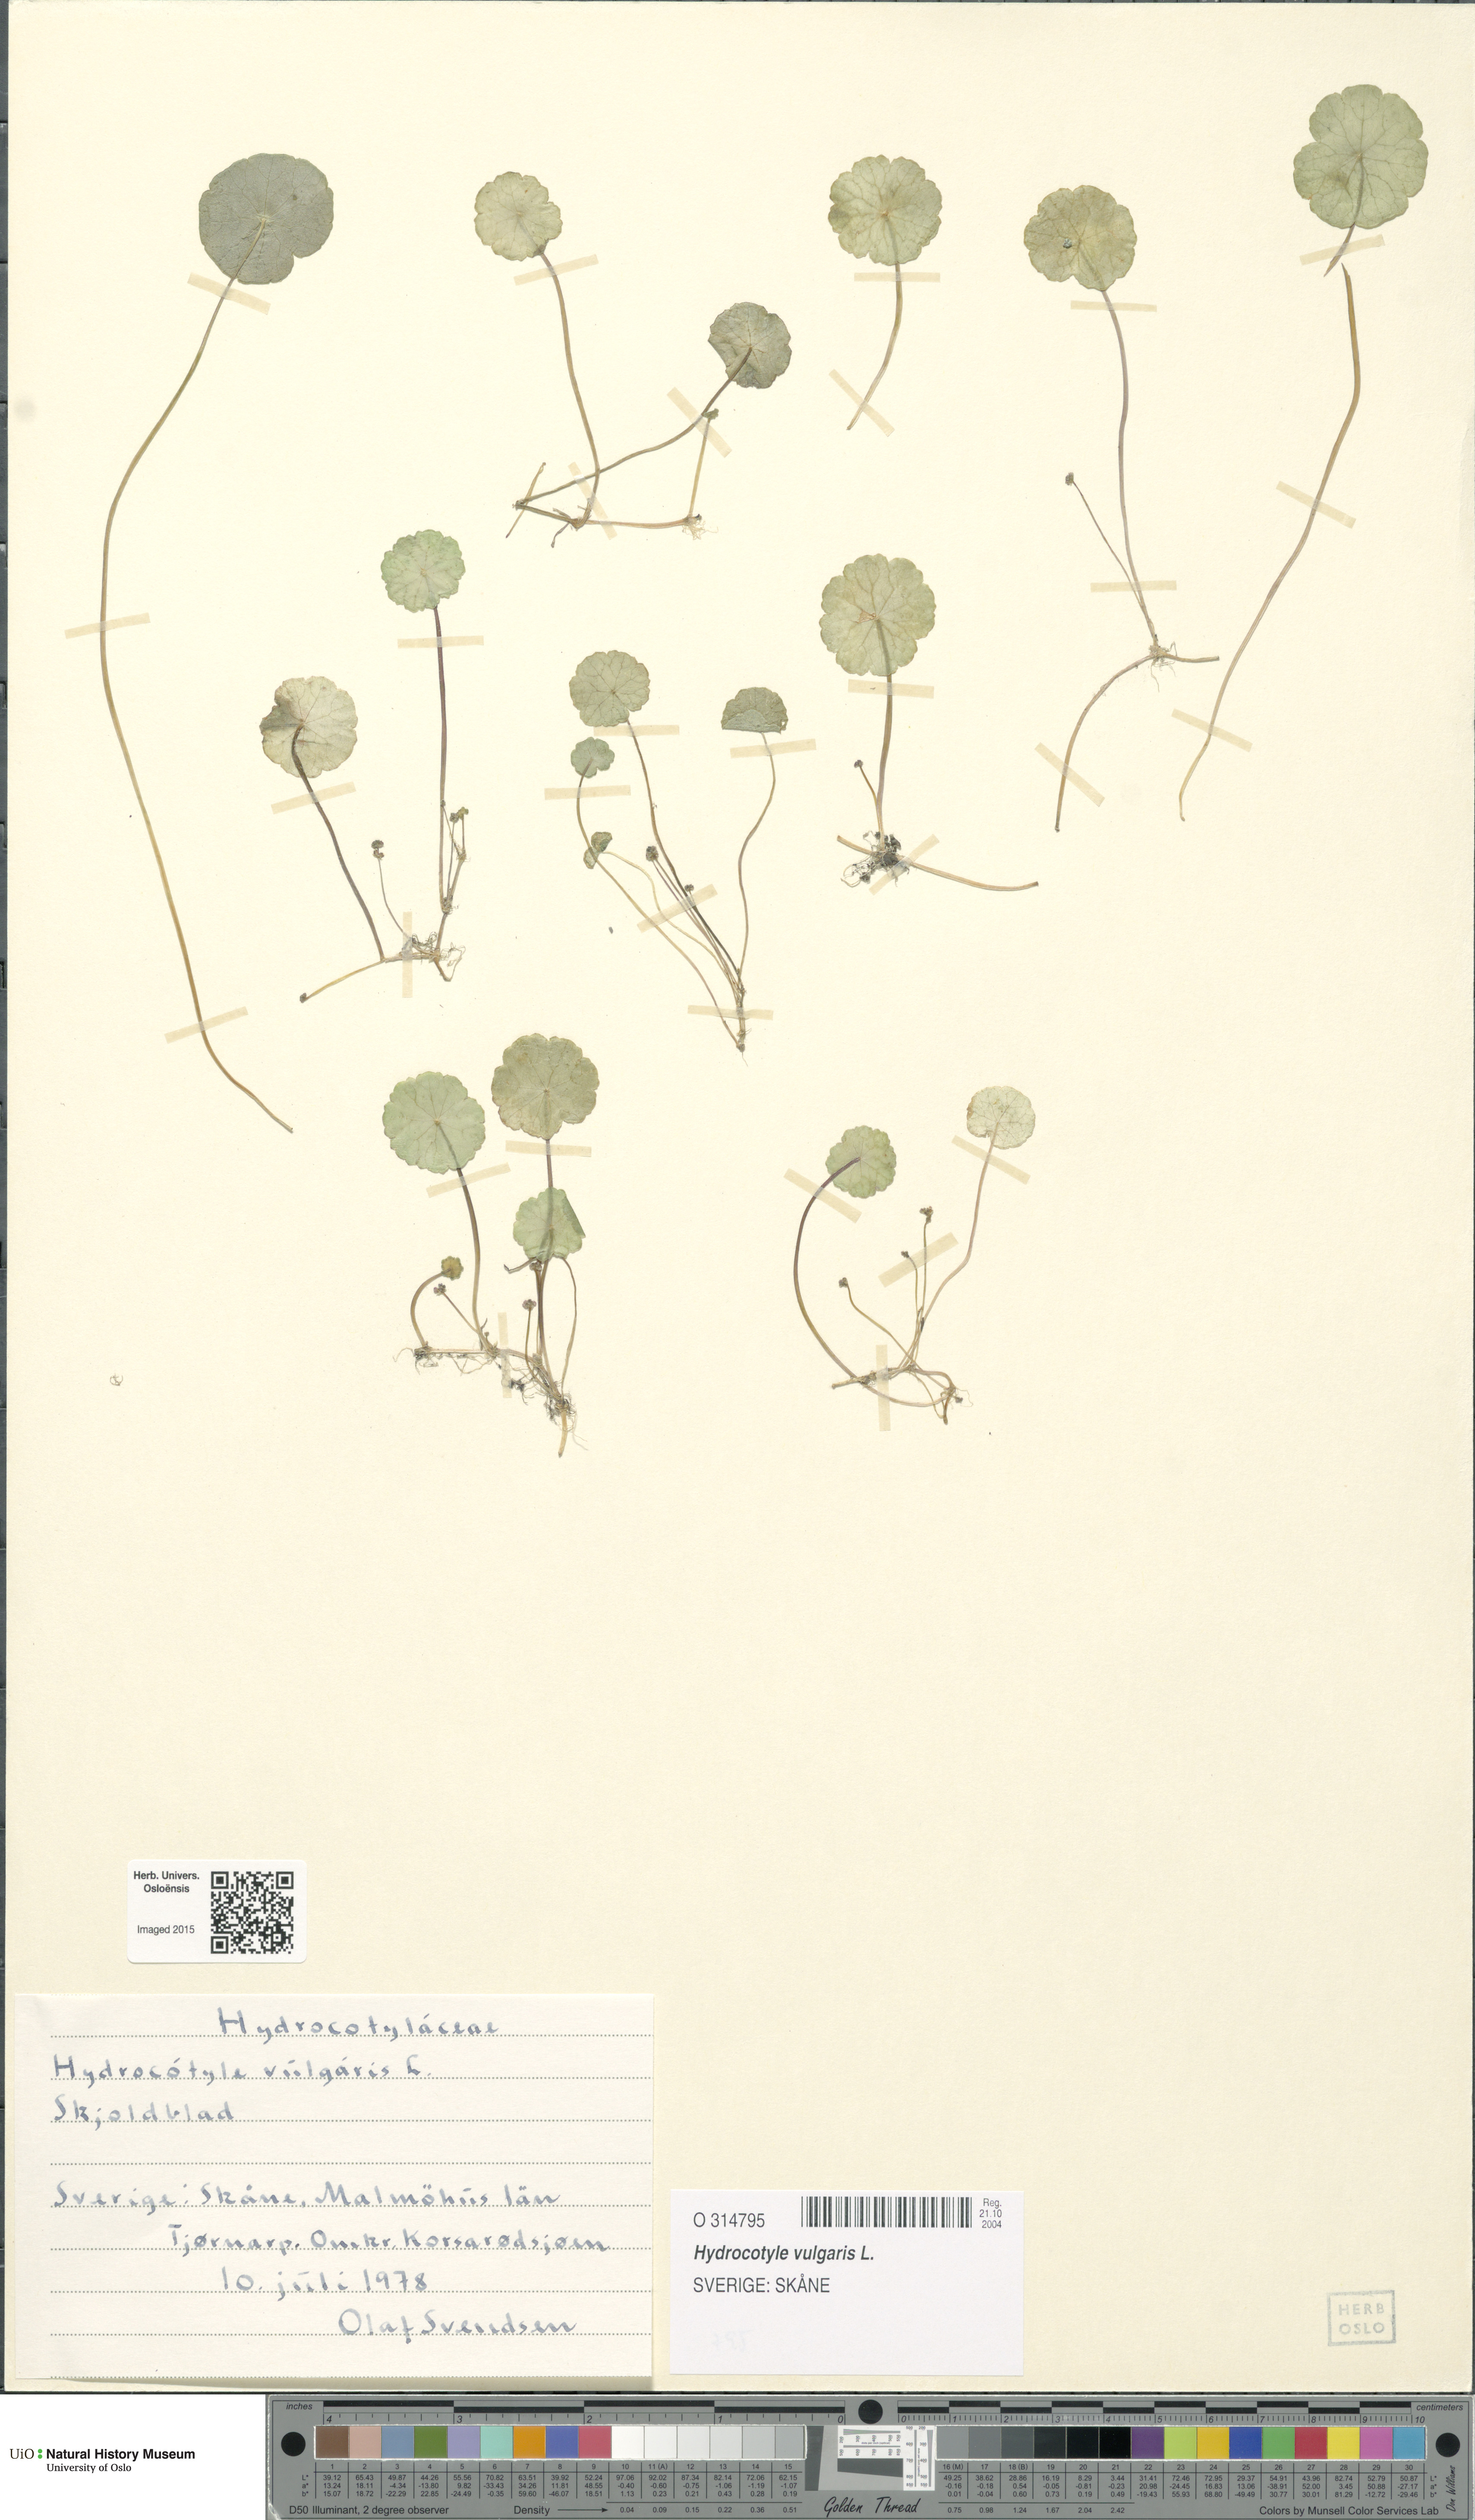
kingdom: Plantae
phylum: Tracheophyta
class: Magnoliopsida
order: Apiales
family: Araliaceae
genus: Hydrocotyle
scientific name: Hydrocotyle vulgaris
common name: Marsh pennywort
